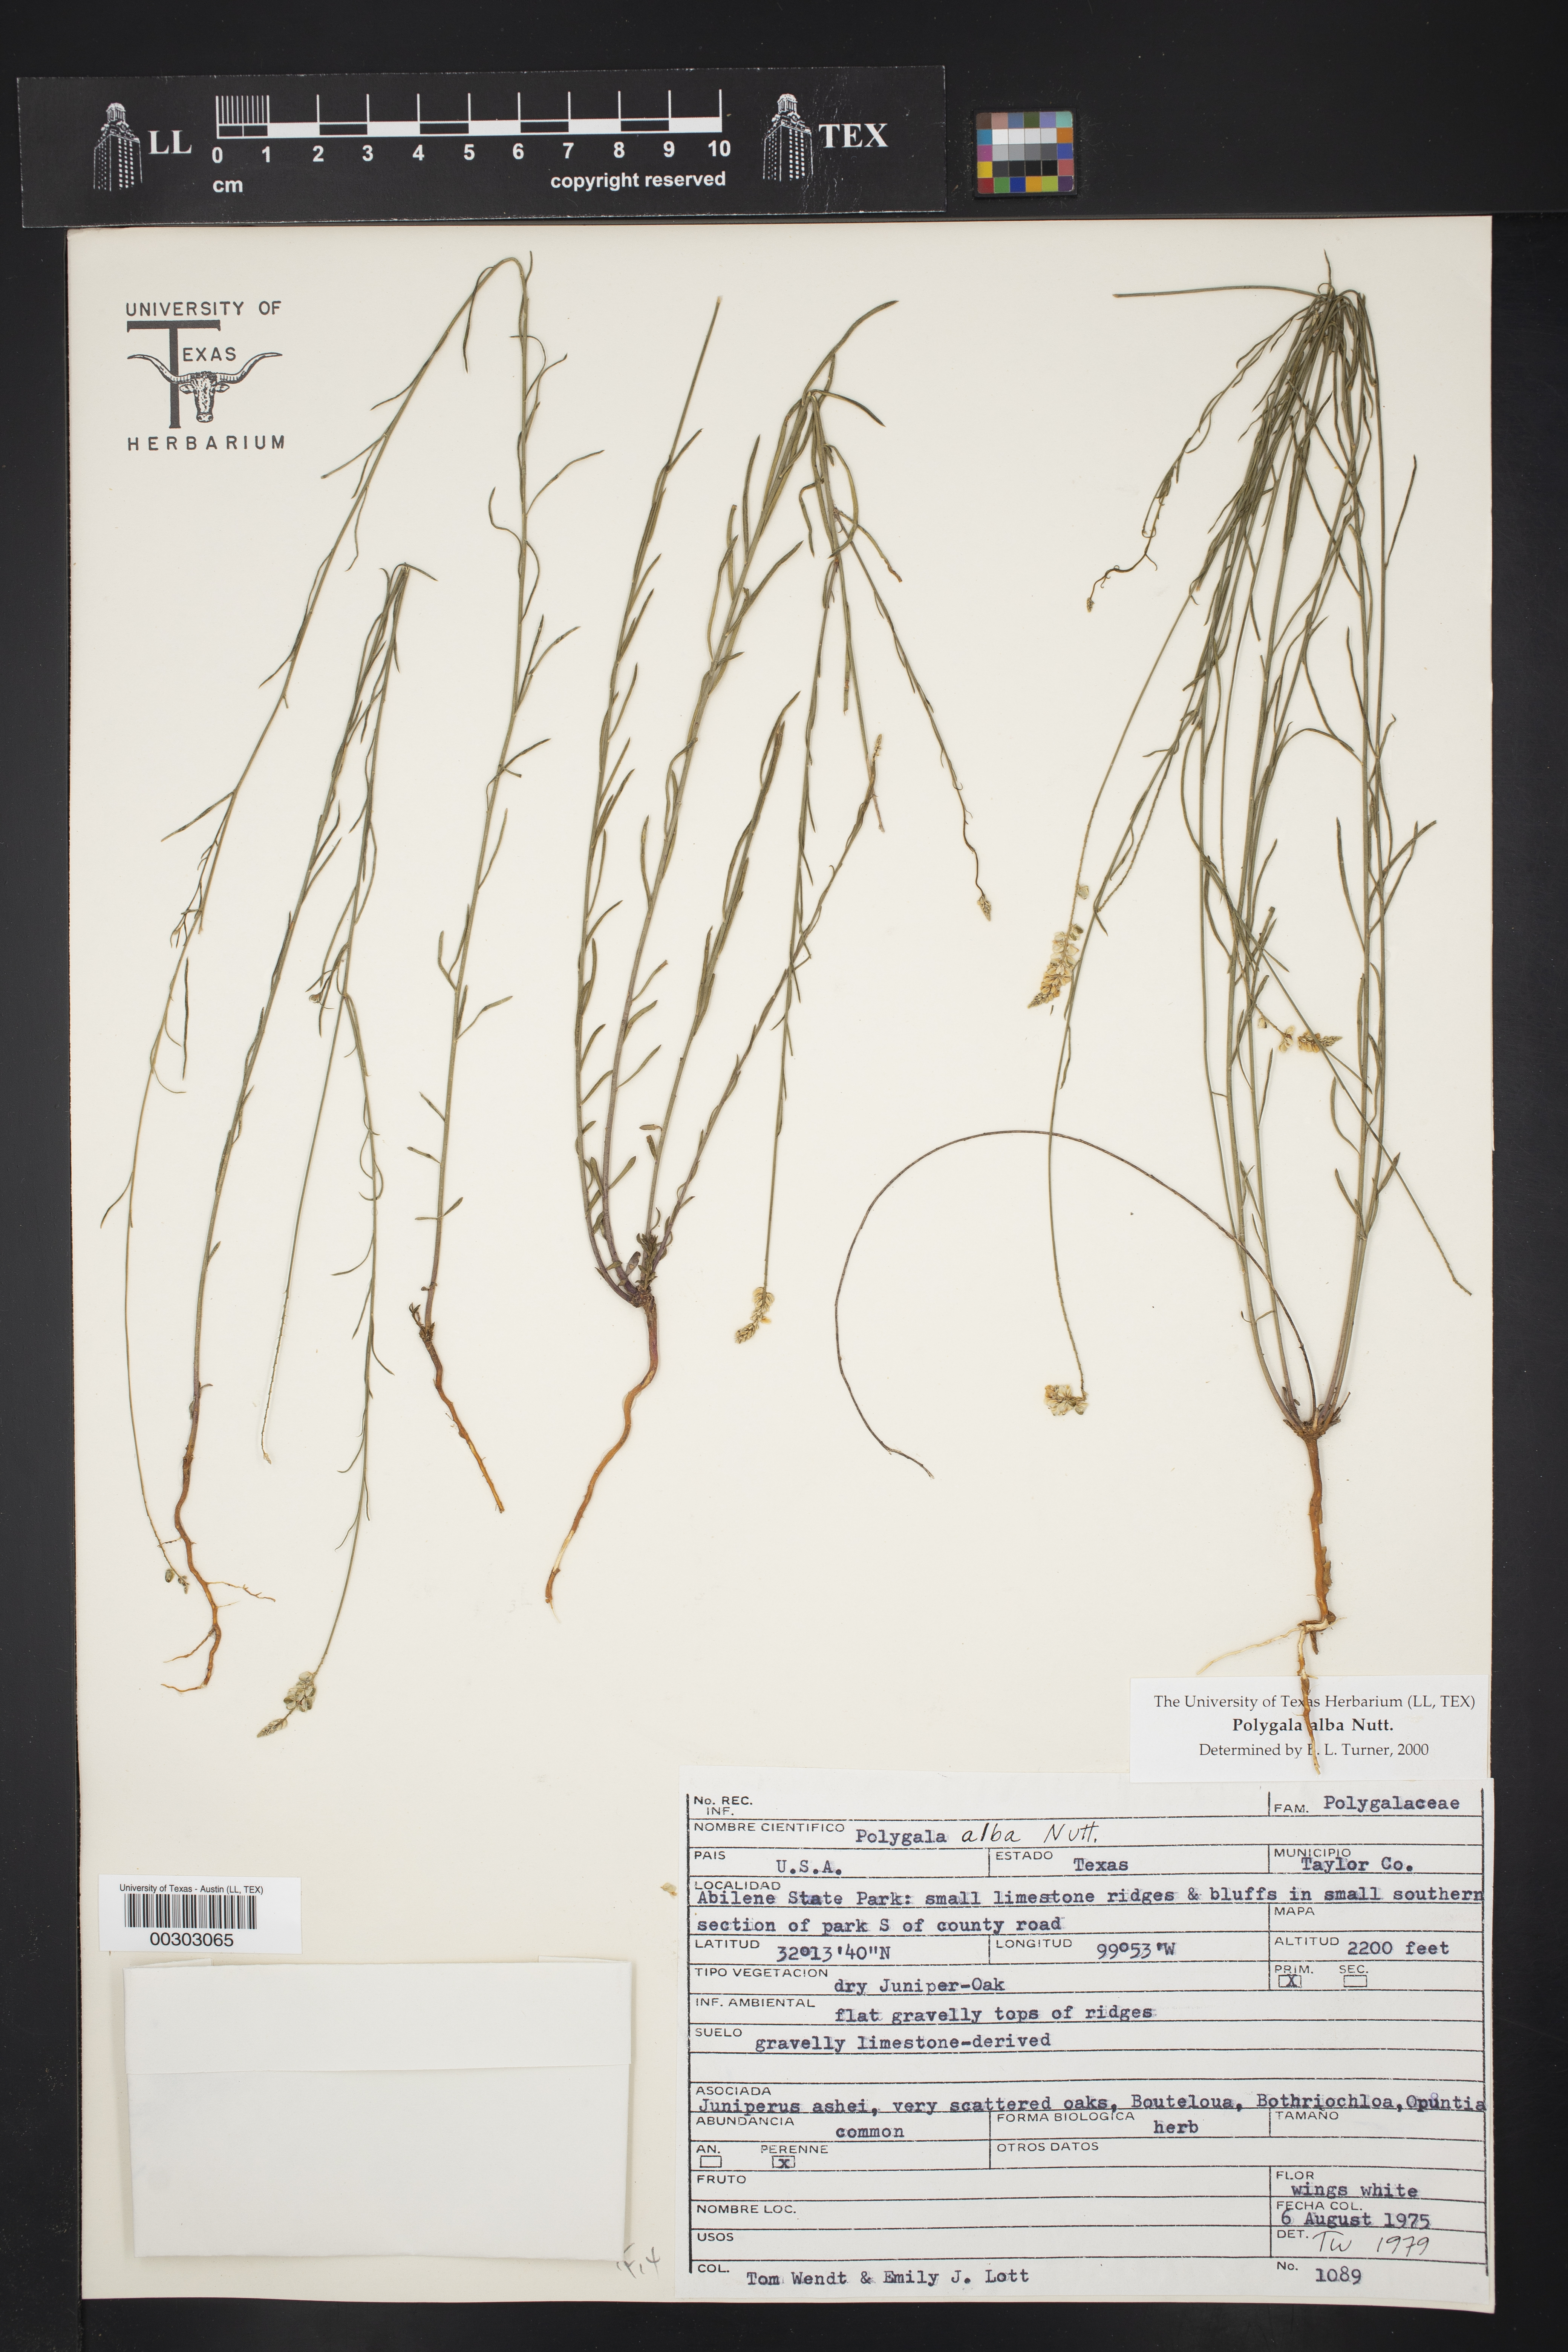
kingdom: Plantae
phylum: Tracheophyta
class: Magnoliopsida
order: Fabales
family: Polygalaceae
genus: Polygala
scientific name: Polygala alba
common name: White milkwort
